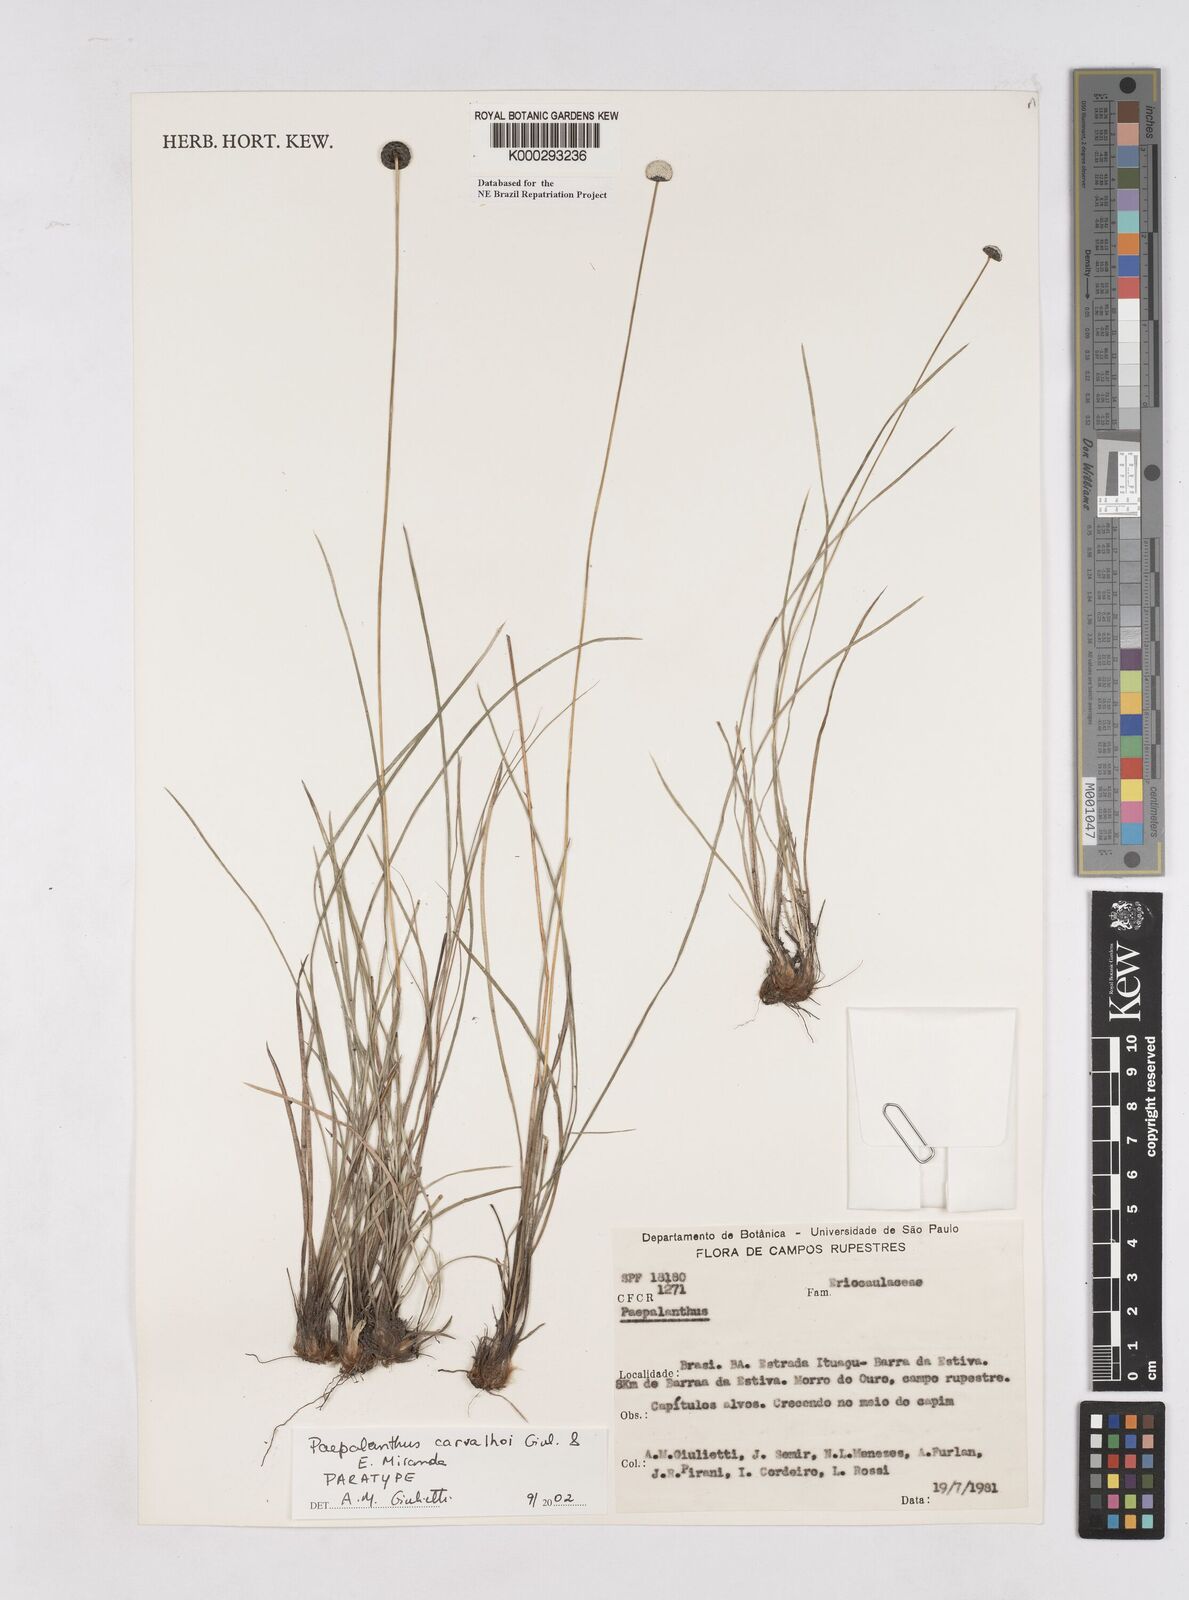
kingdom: Plantae
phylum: Tracheophyta
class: Liliopsida
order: Poales
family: Eriocaulaceae
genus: Paepalanthus
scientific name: Paepalanthus carvalhoi
